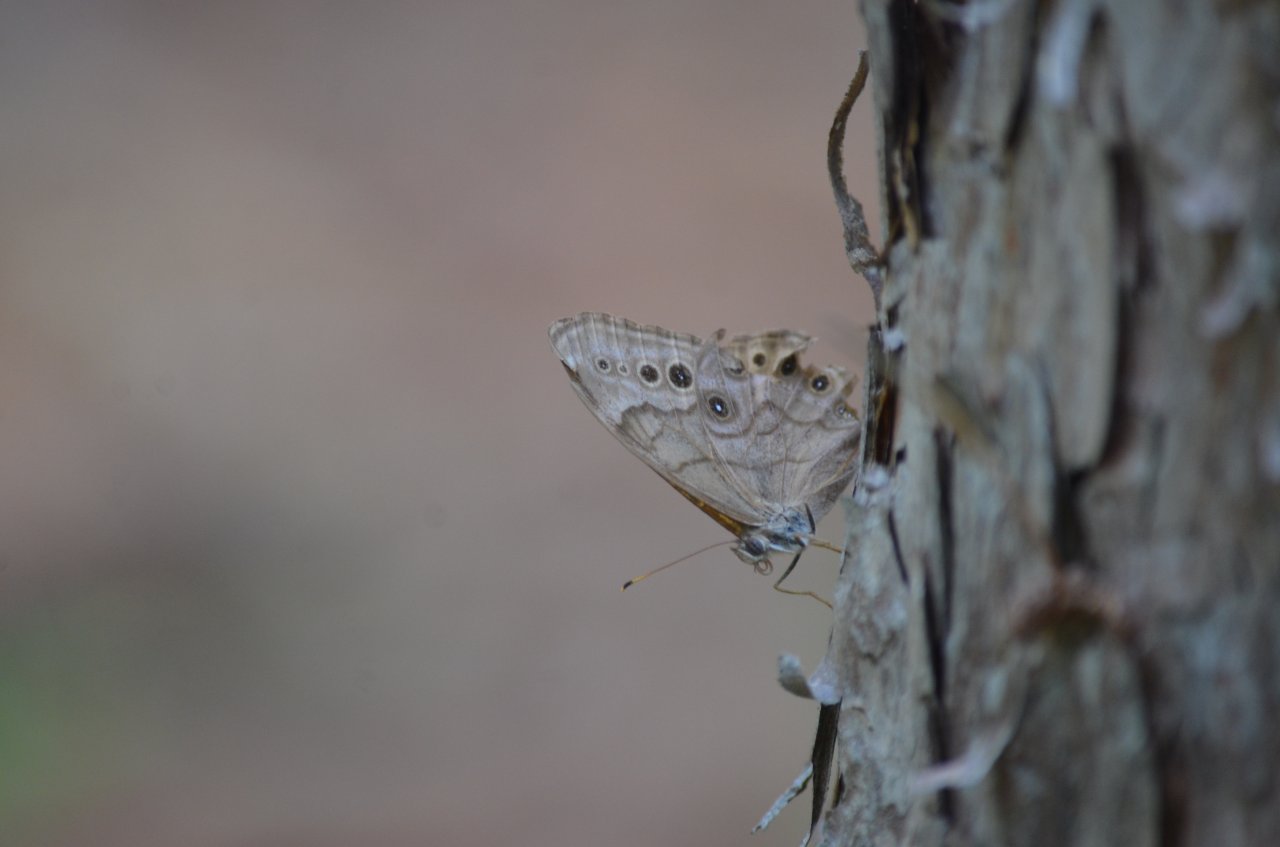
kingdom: Animalia
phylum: Arthropoda
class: Insecta
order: Lepidoptera
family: Nymphalidae
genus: Lethe
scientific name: Lethe anthedon
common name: Northern Pearly-Eye
